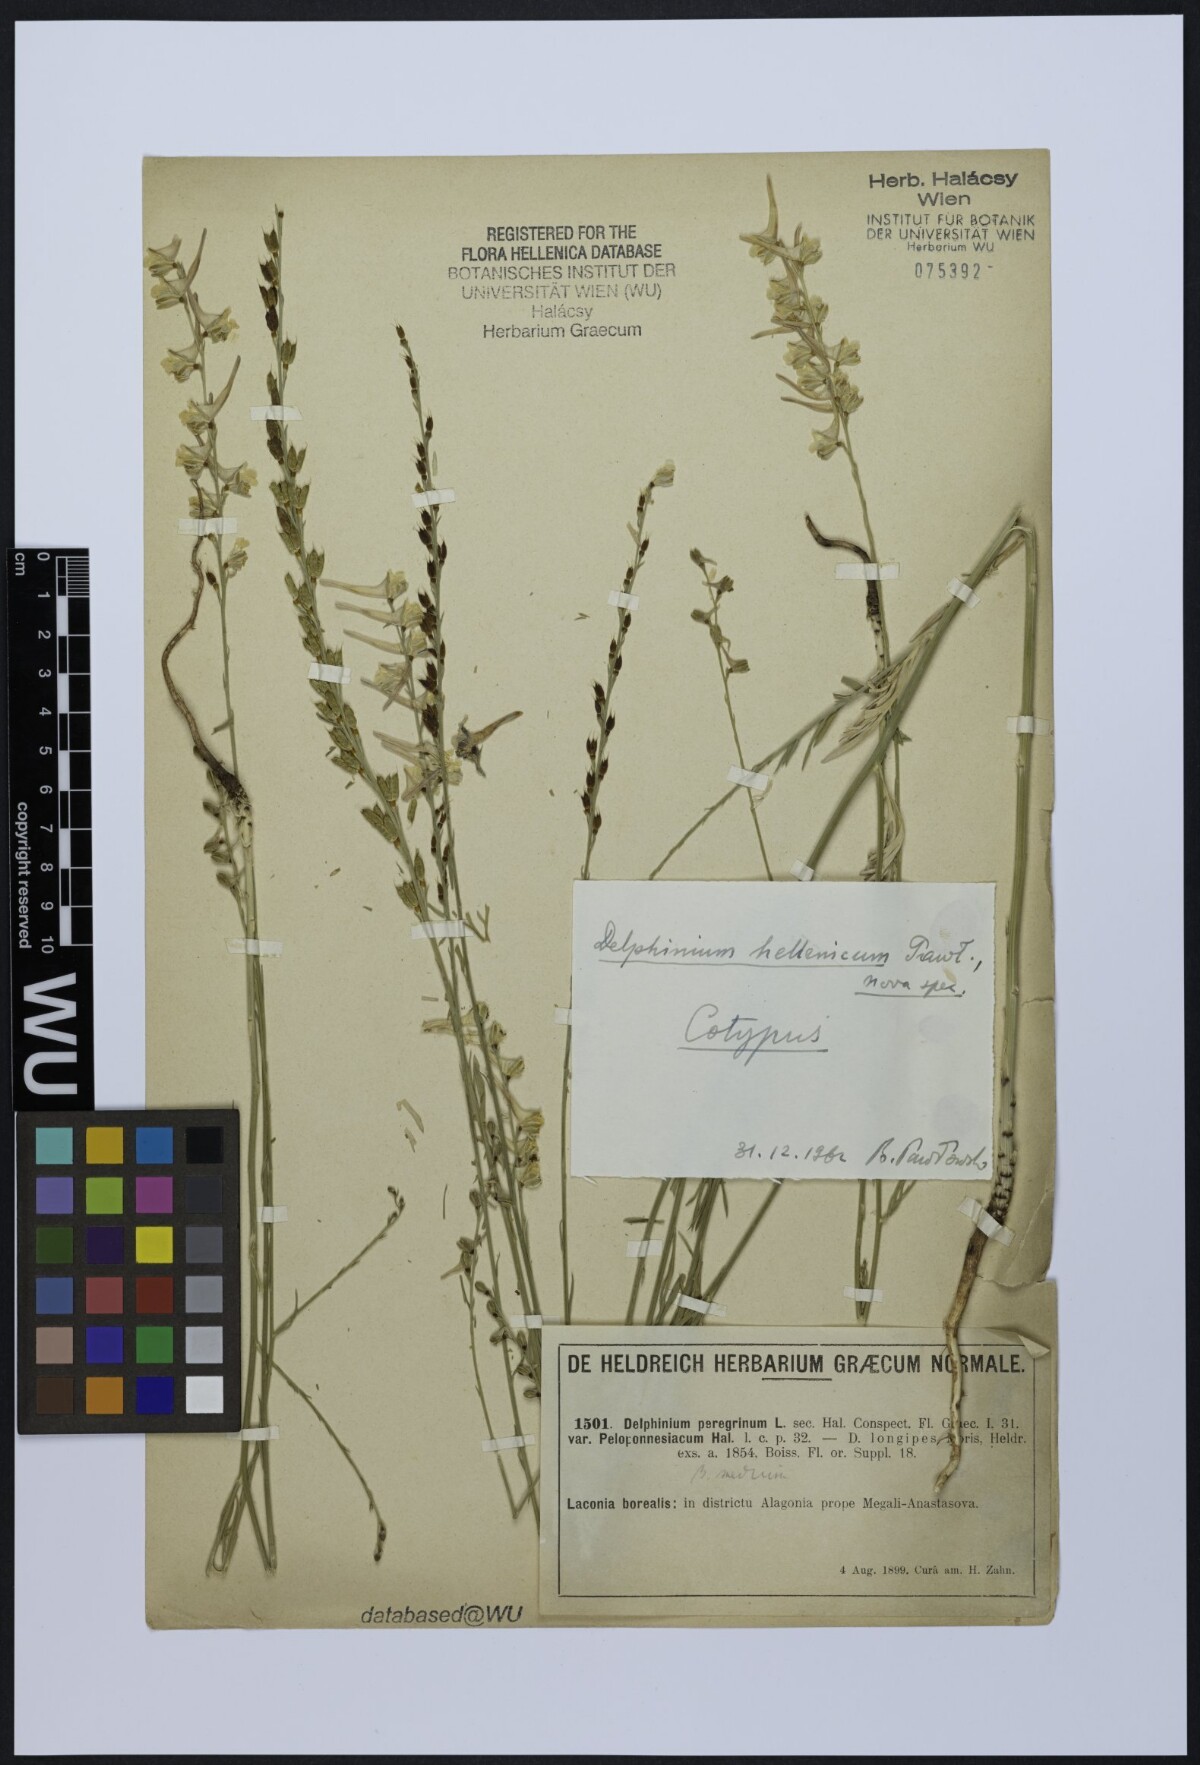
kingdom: Plantae
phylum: Tracheophyta
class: Magnoliopsida
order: Ranunculales
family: Ranunculaceae
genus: Delphinium
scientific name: Delphinium hellenicum
